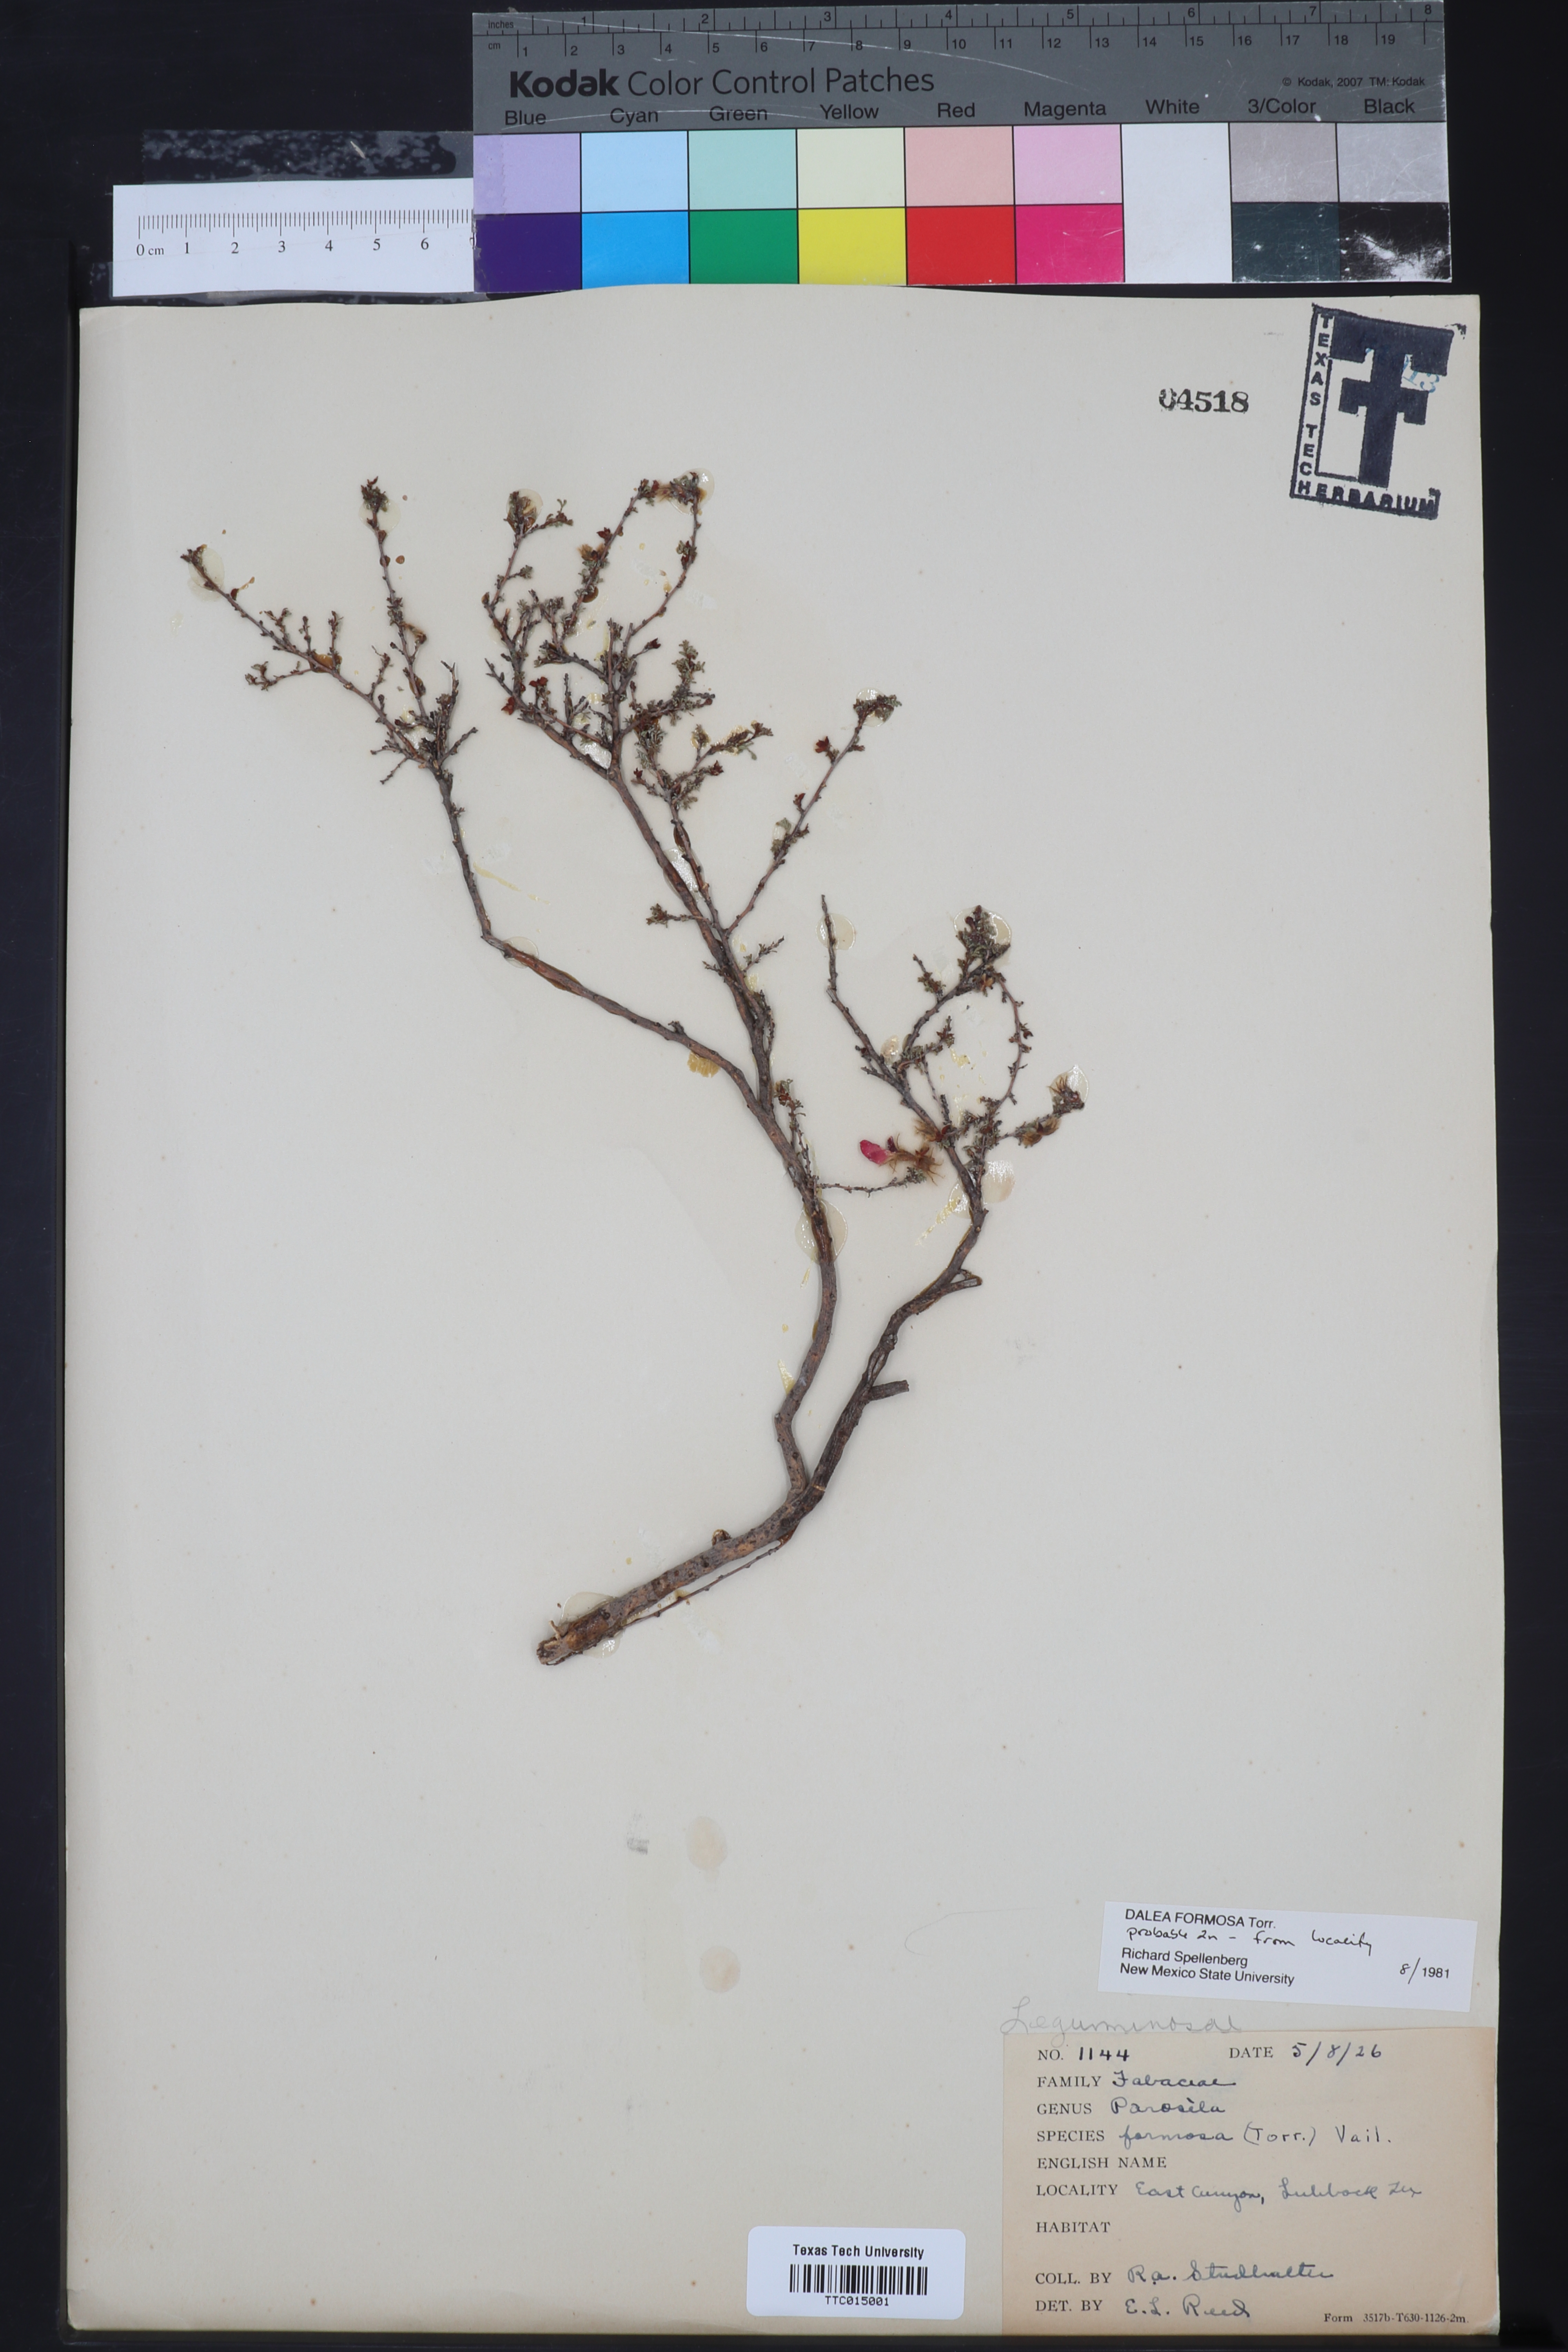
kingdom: Plantae
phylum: Tracheophyta
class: Magnoliopsida
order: Fabales
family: Fabaceae
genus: Dalea
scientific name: Dalea formosa
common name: Feather-plume dalea
